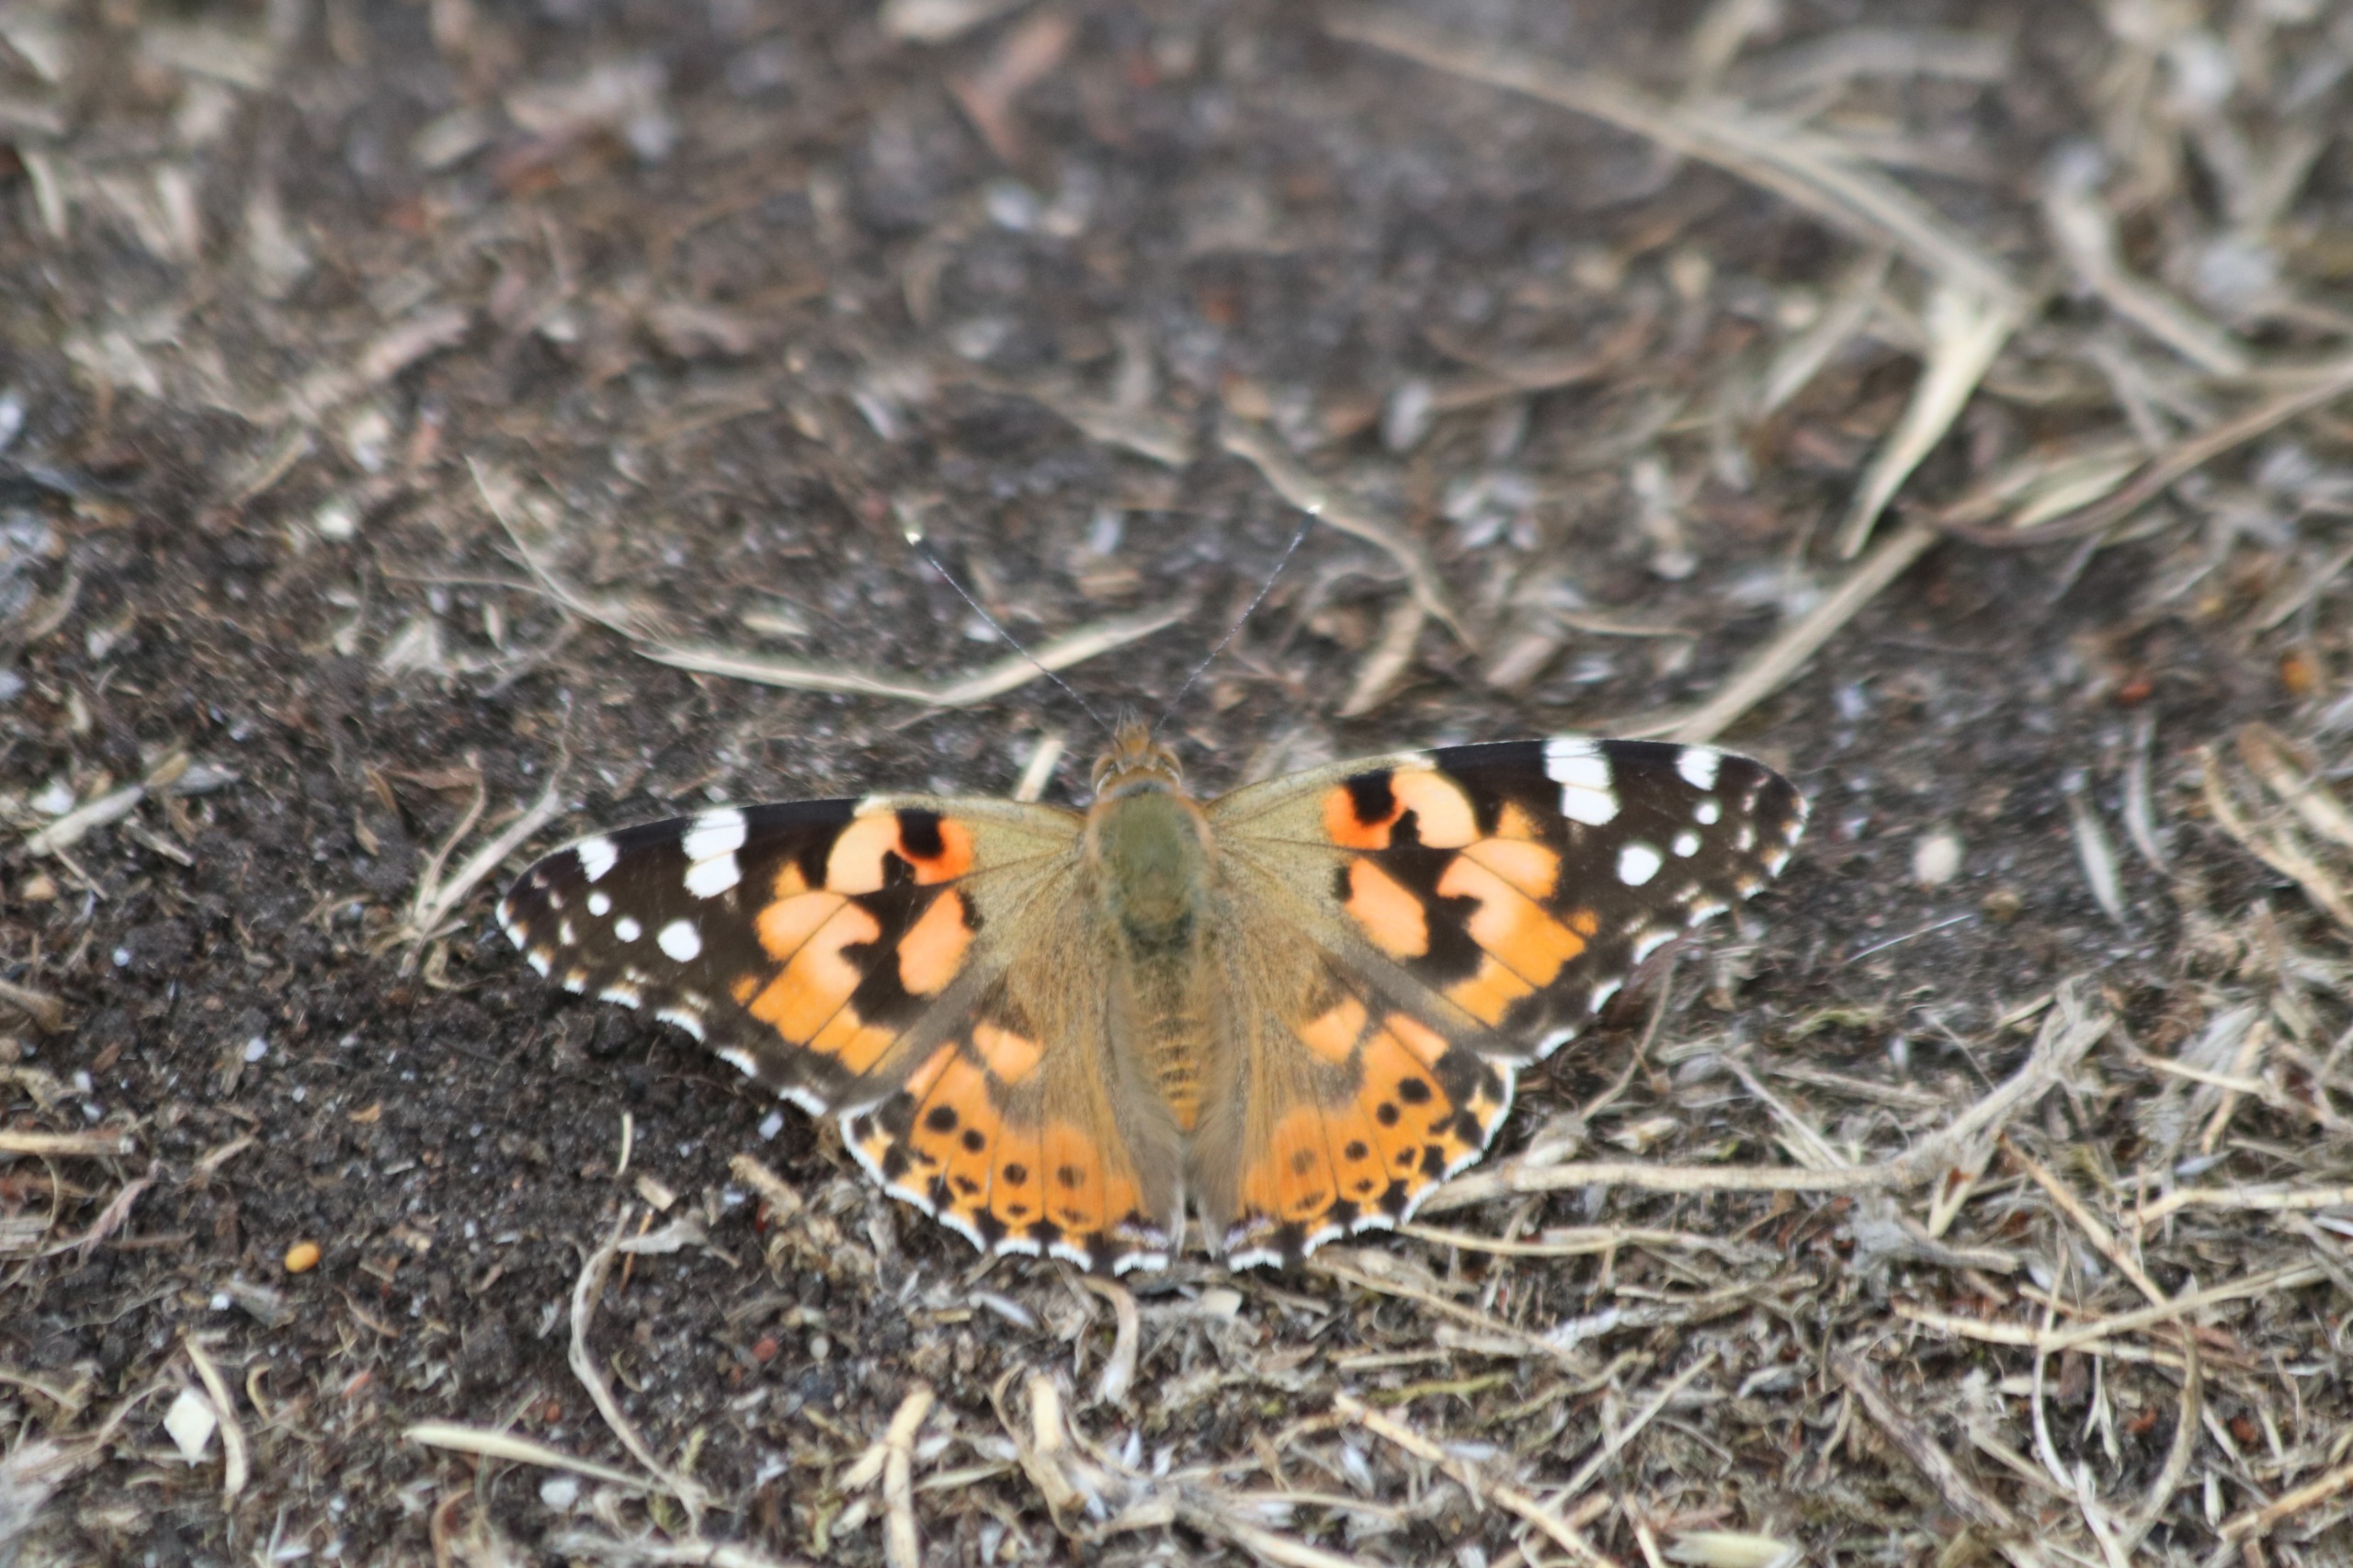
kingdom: Animalia
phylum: Arthropoda
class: Insecta
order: Lepidoptera
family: Nymphalidae
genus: Vanessa
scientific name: Vanessa cardui
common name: Tidselsommerfugl
